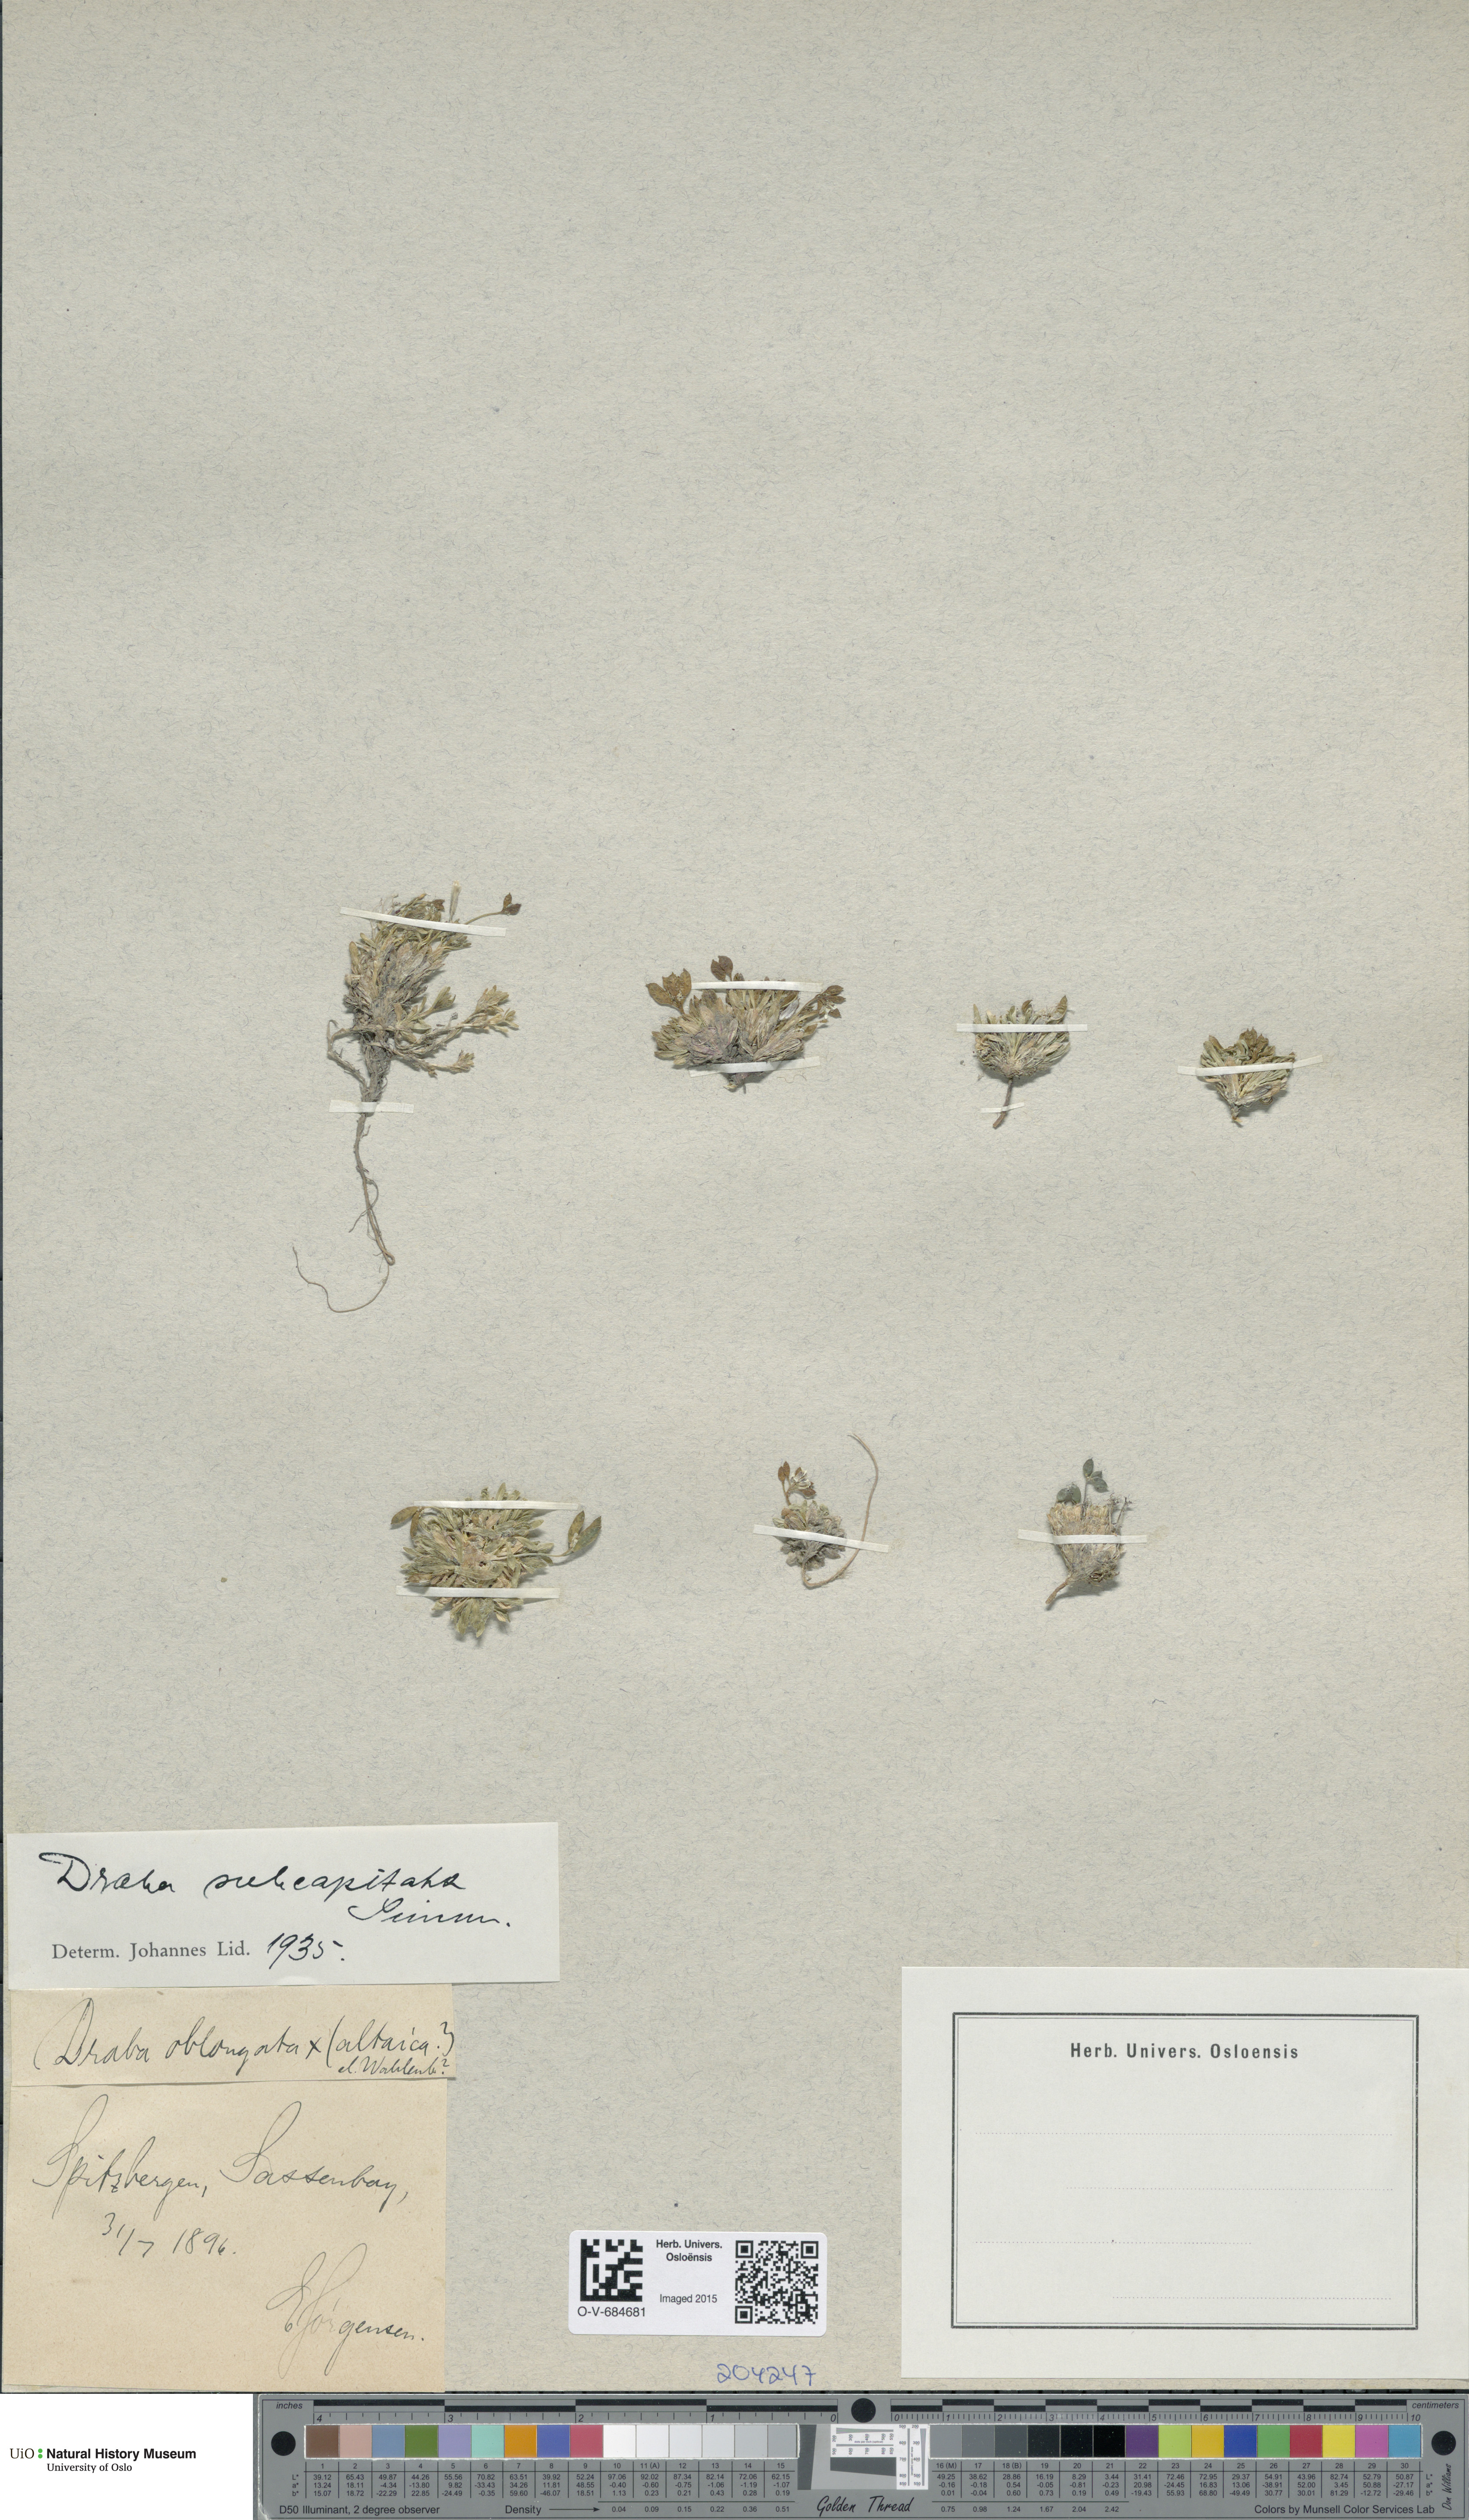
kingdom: Plantae
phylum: Tracheophyta
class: Magnoliopsida
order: Brassicales
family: Brassicaceae
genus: Draba
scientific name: Draba subcapitata
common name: Ellesmere island draba
